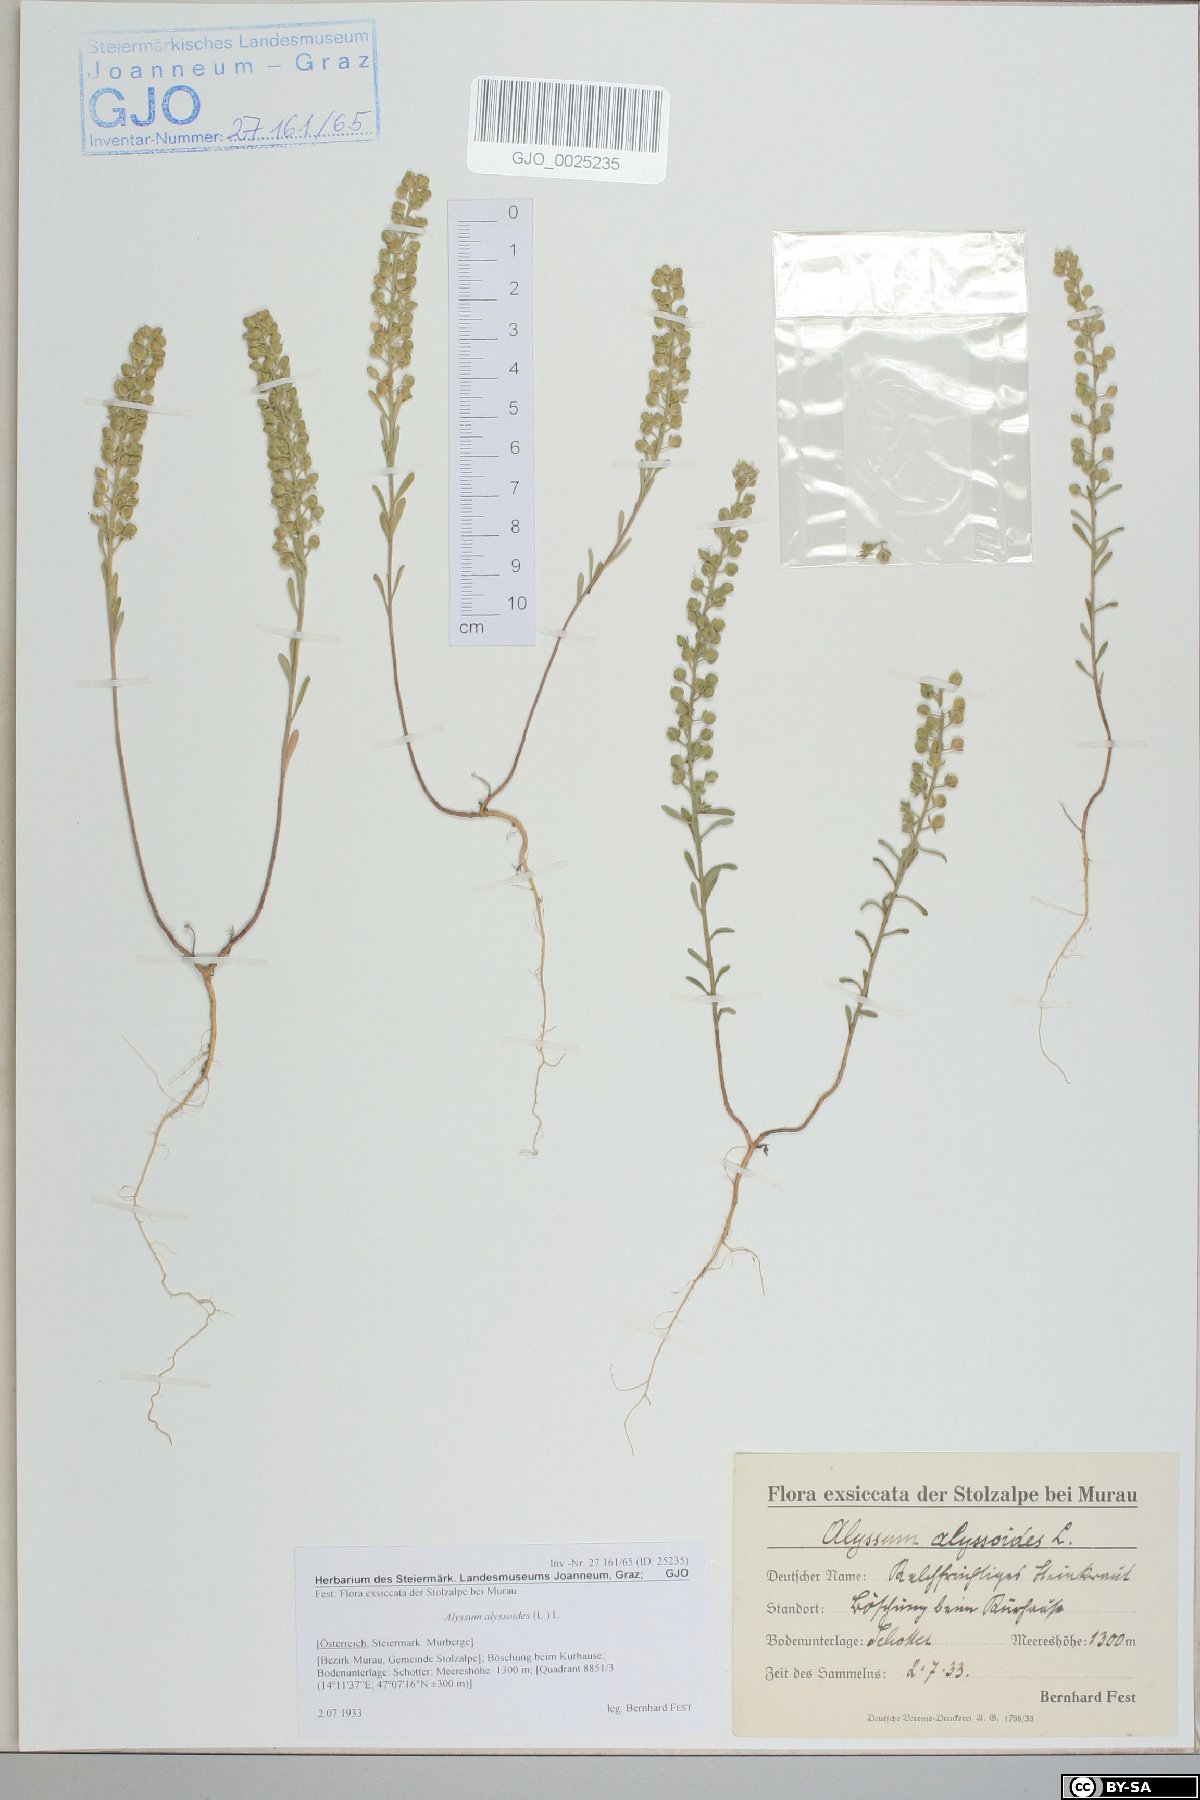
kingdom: Plantae
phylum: Tracheophyta
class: Magnoliopsida
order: Brassicales
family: Brassicaceae
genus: Alyssum
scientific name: Alyssum alyssoides
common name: Small alison
